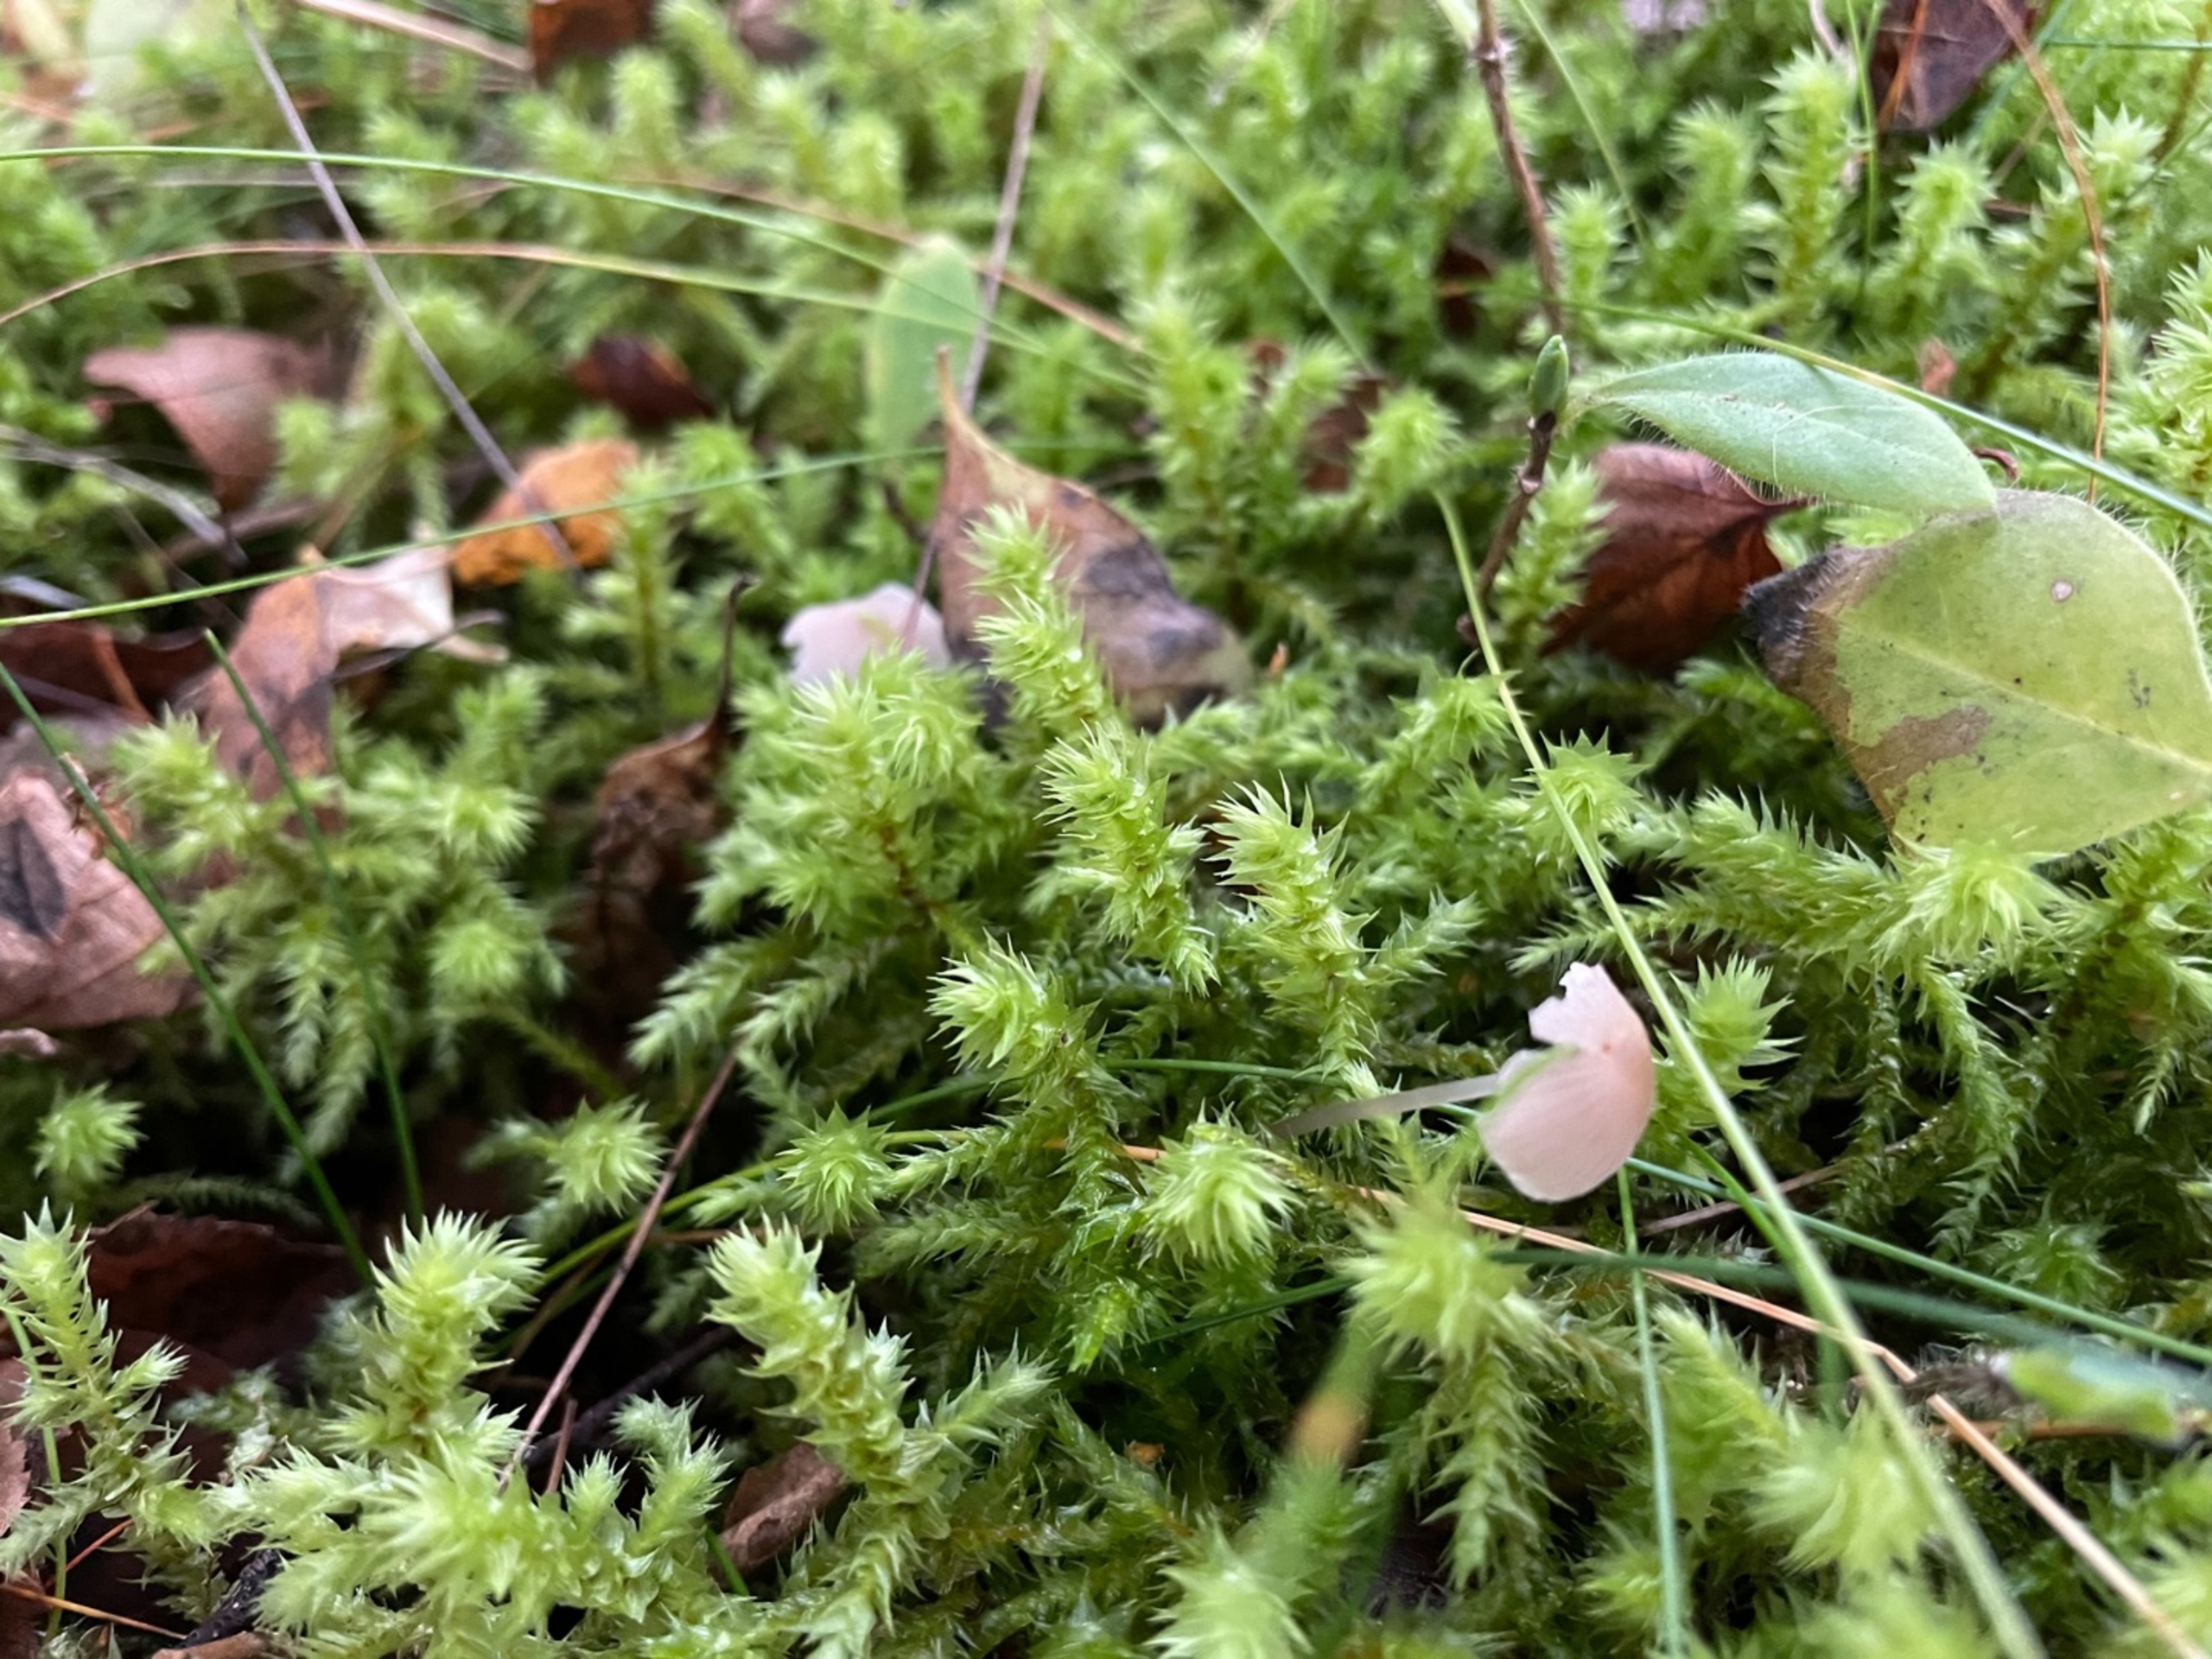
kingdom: Plantae
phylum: Bryophyta
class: Bryopsida
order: Hypnales
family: Hylocomiaceae
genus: Hylocomiadelphus
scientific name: Hylocomiadelphus triquetrus
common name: Stor kransemos
